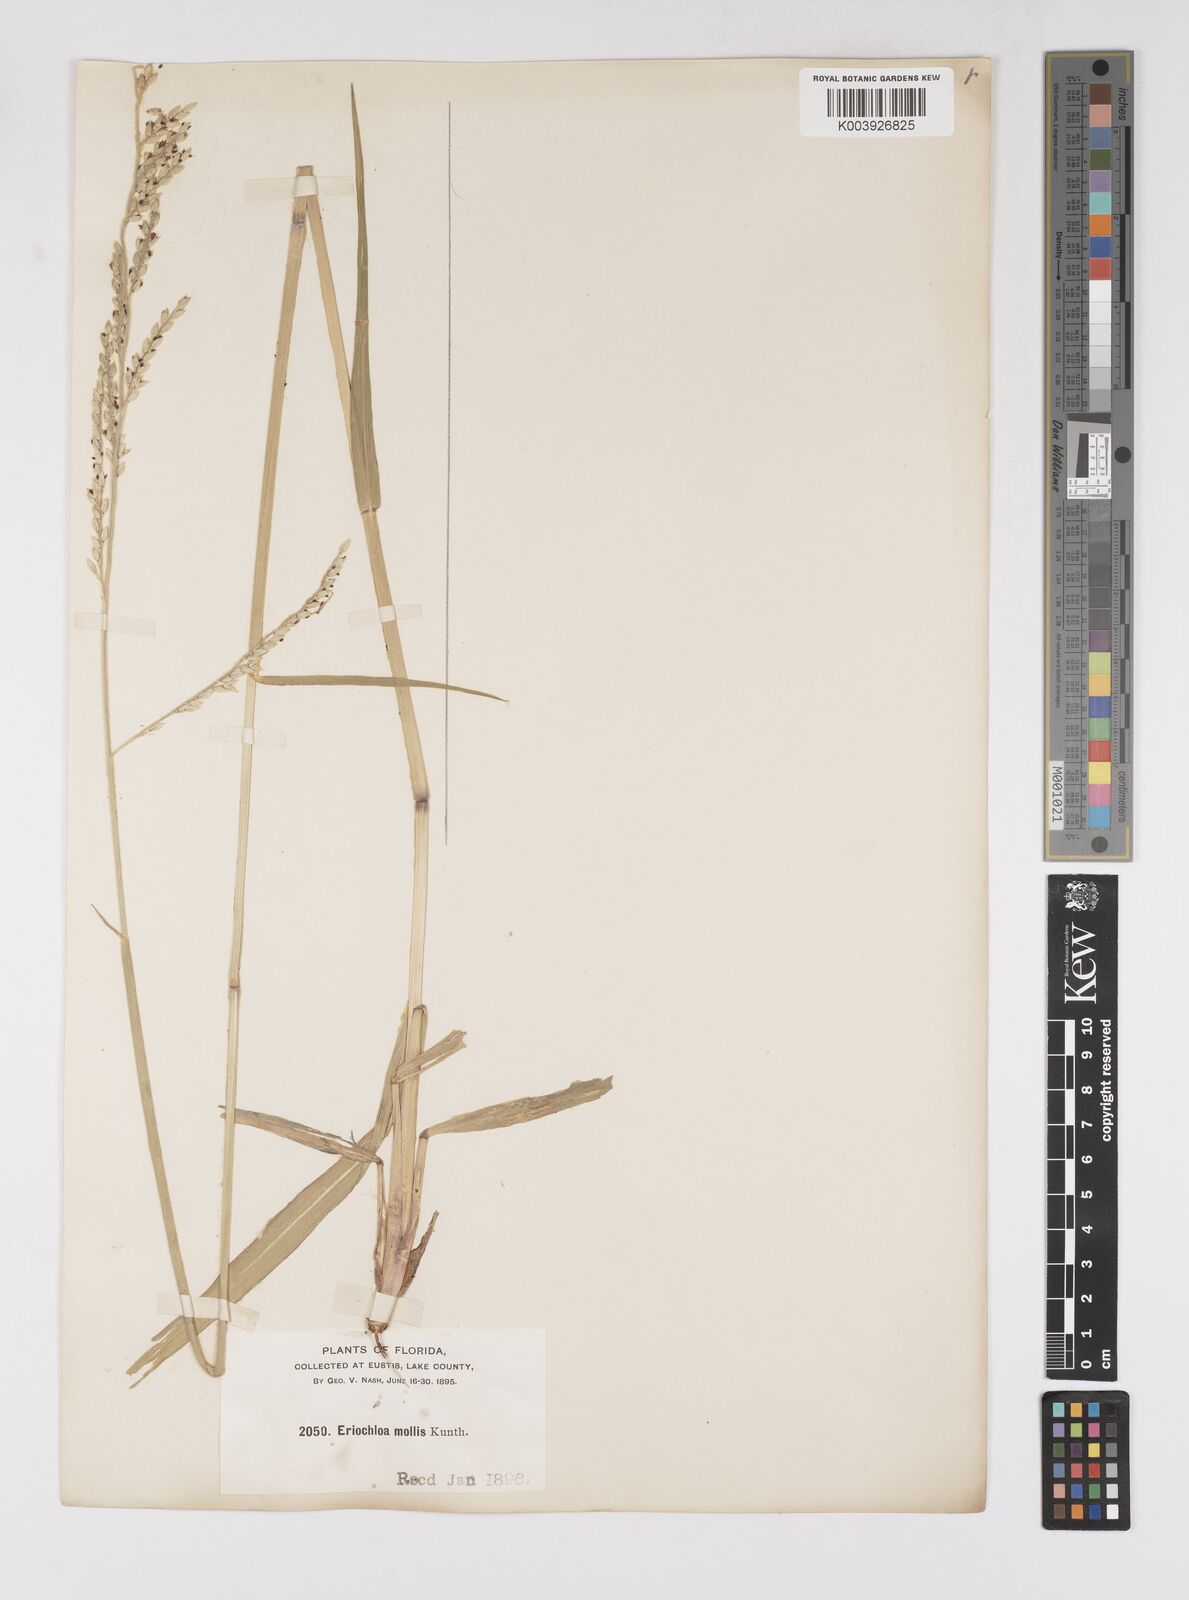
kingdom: Plantae
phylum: Tracheophyta
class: Liliopsida
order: Poales
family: Poaceae
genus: Eriochloa
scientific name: Eriochloa michauxii
